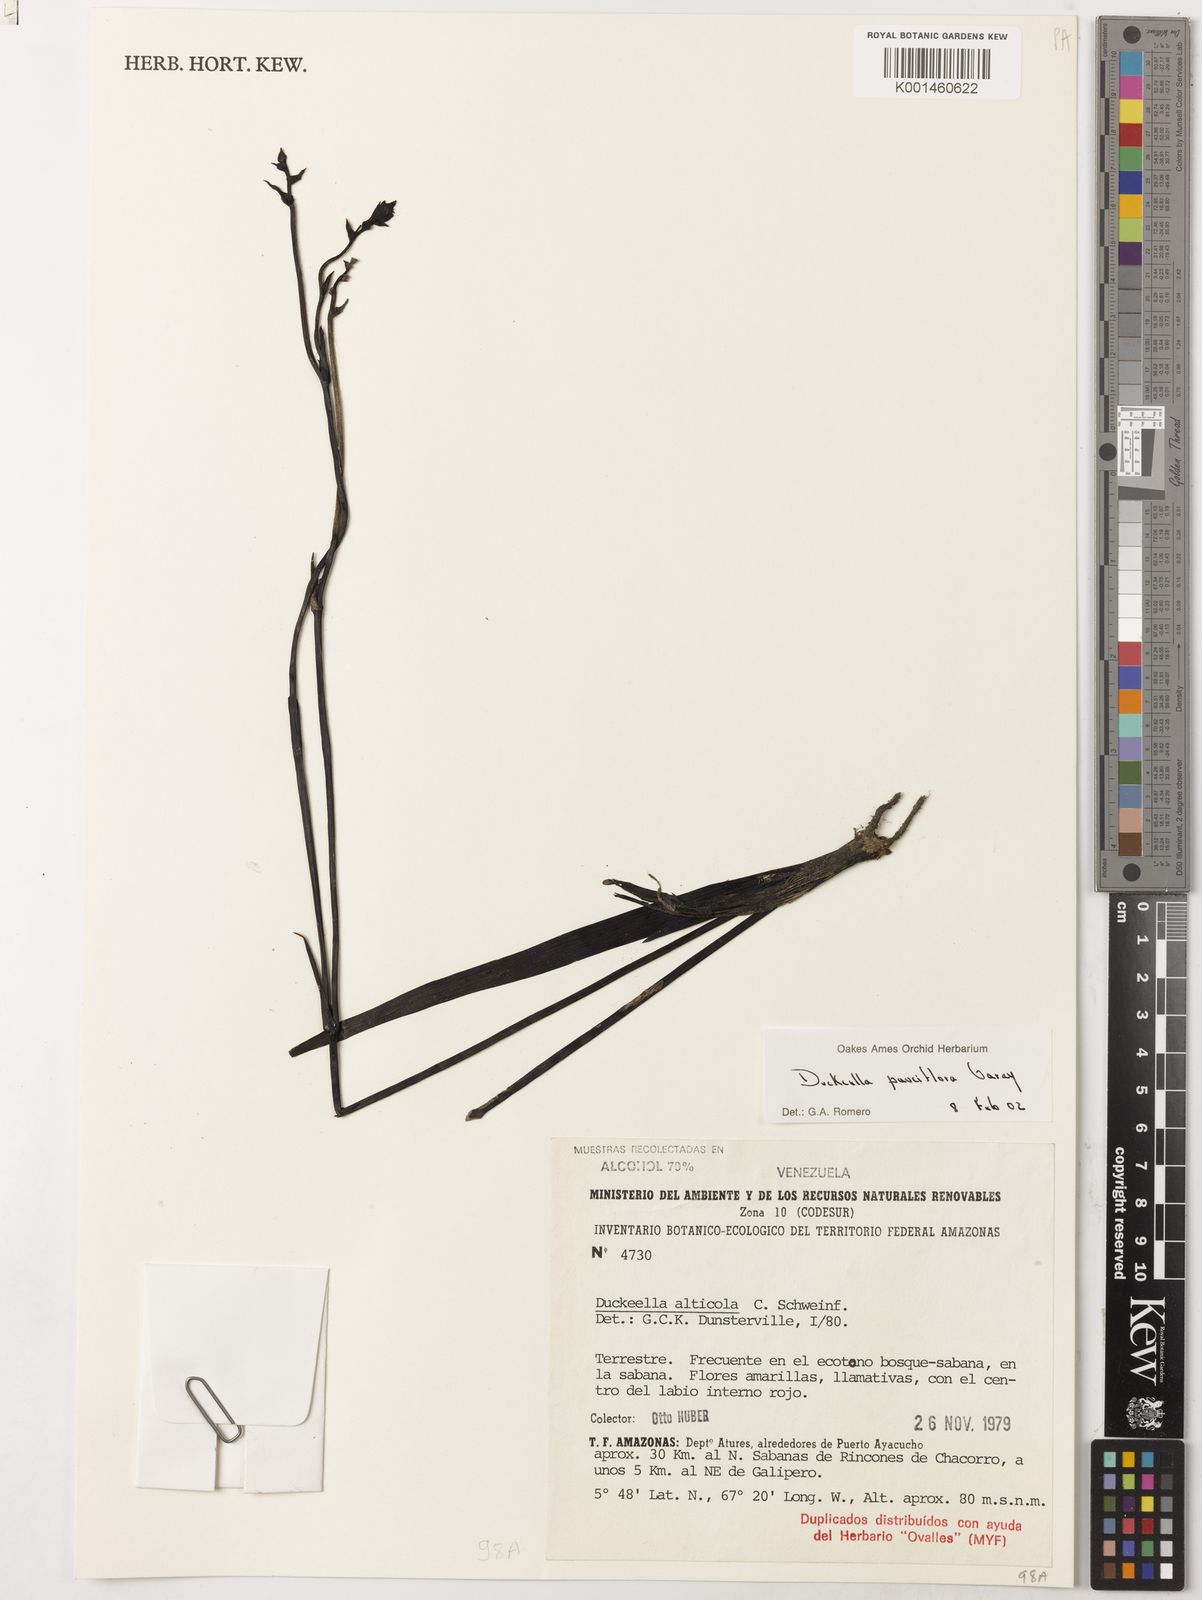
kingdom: Plantae
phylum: Tracheophyta
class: Liliopsida
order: Asparagales
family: Orchidaceae
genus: Duckeella
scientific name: Duckeella pauciflora
